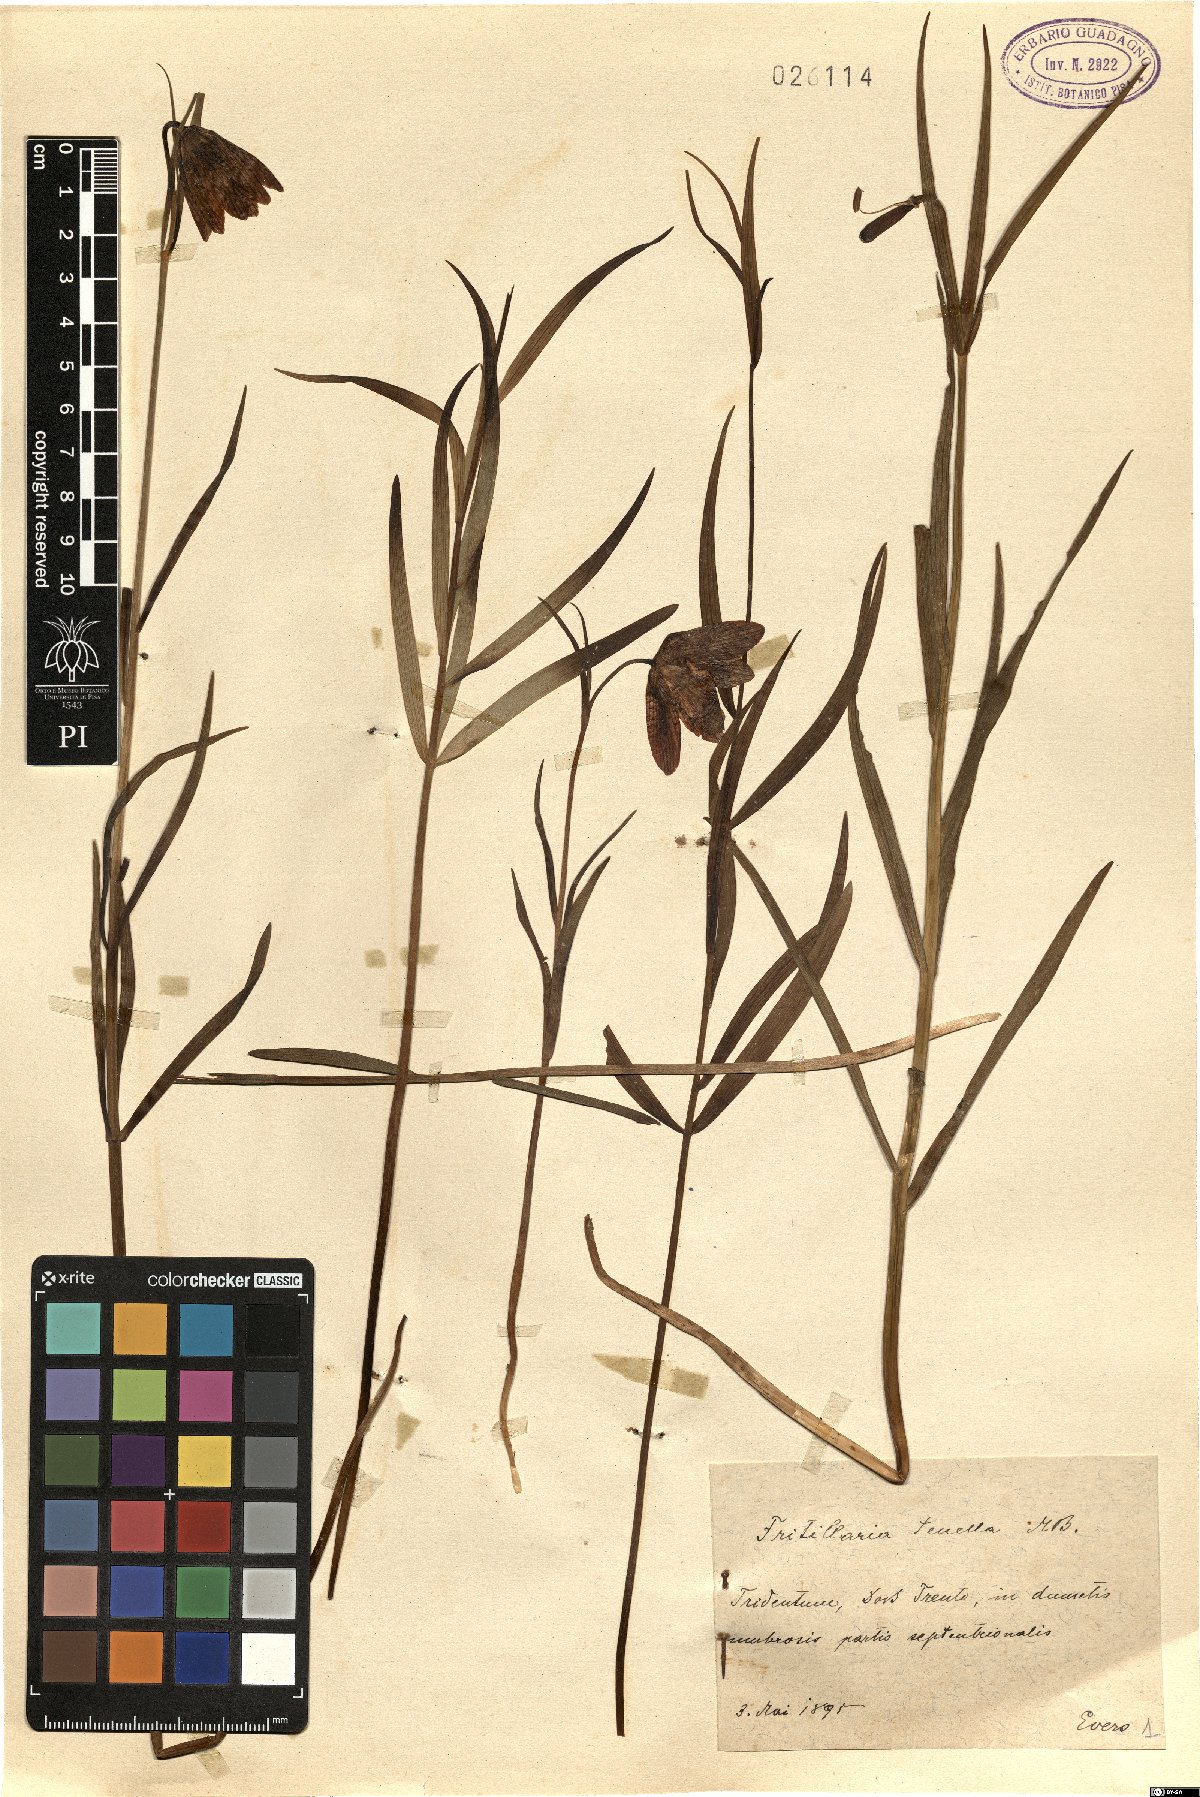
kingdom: Plantae
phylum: Tracheophyta
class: Liliopsida
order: Liliales
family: Liliaceae
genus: Fritillaria
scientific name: Fritillaria orientalis
